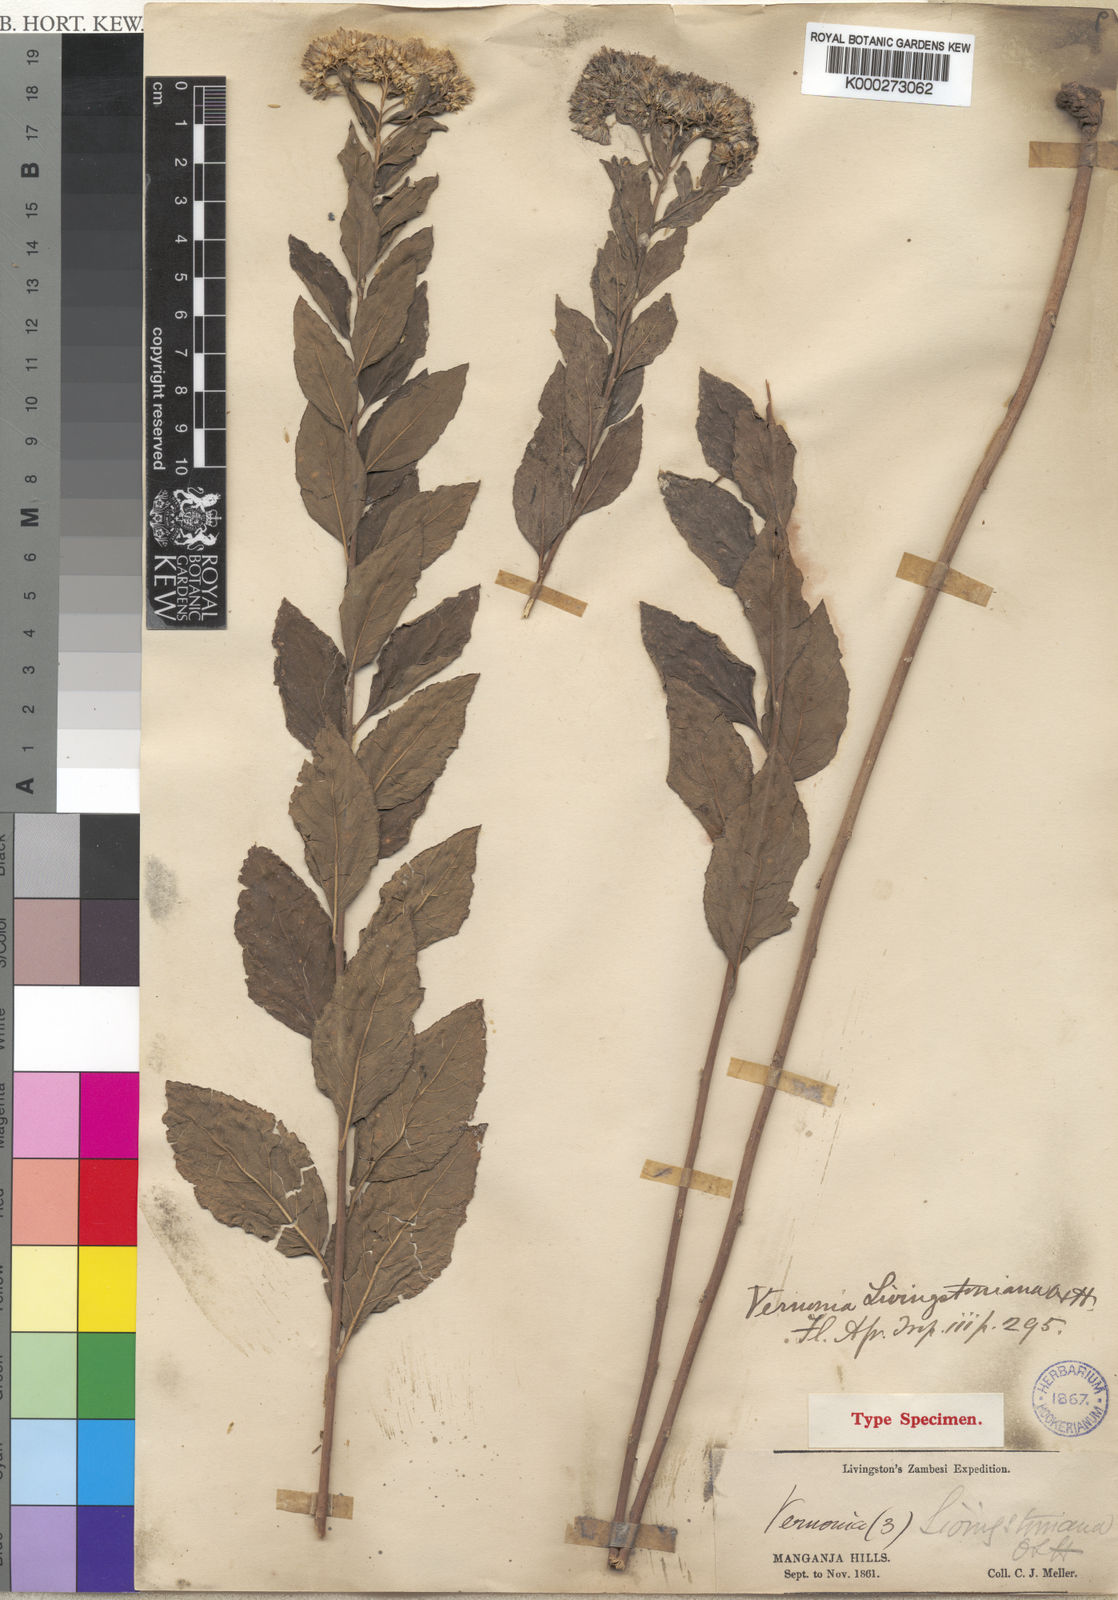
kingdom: Plantae
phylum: Tracheophyta
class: Magnoliopsida
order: Asterales
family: Asteraceae
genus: Gymnanthemum
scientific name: Gymnanthemum thomsonianum
